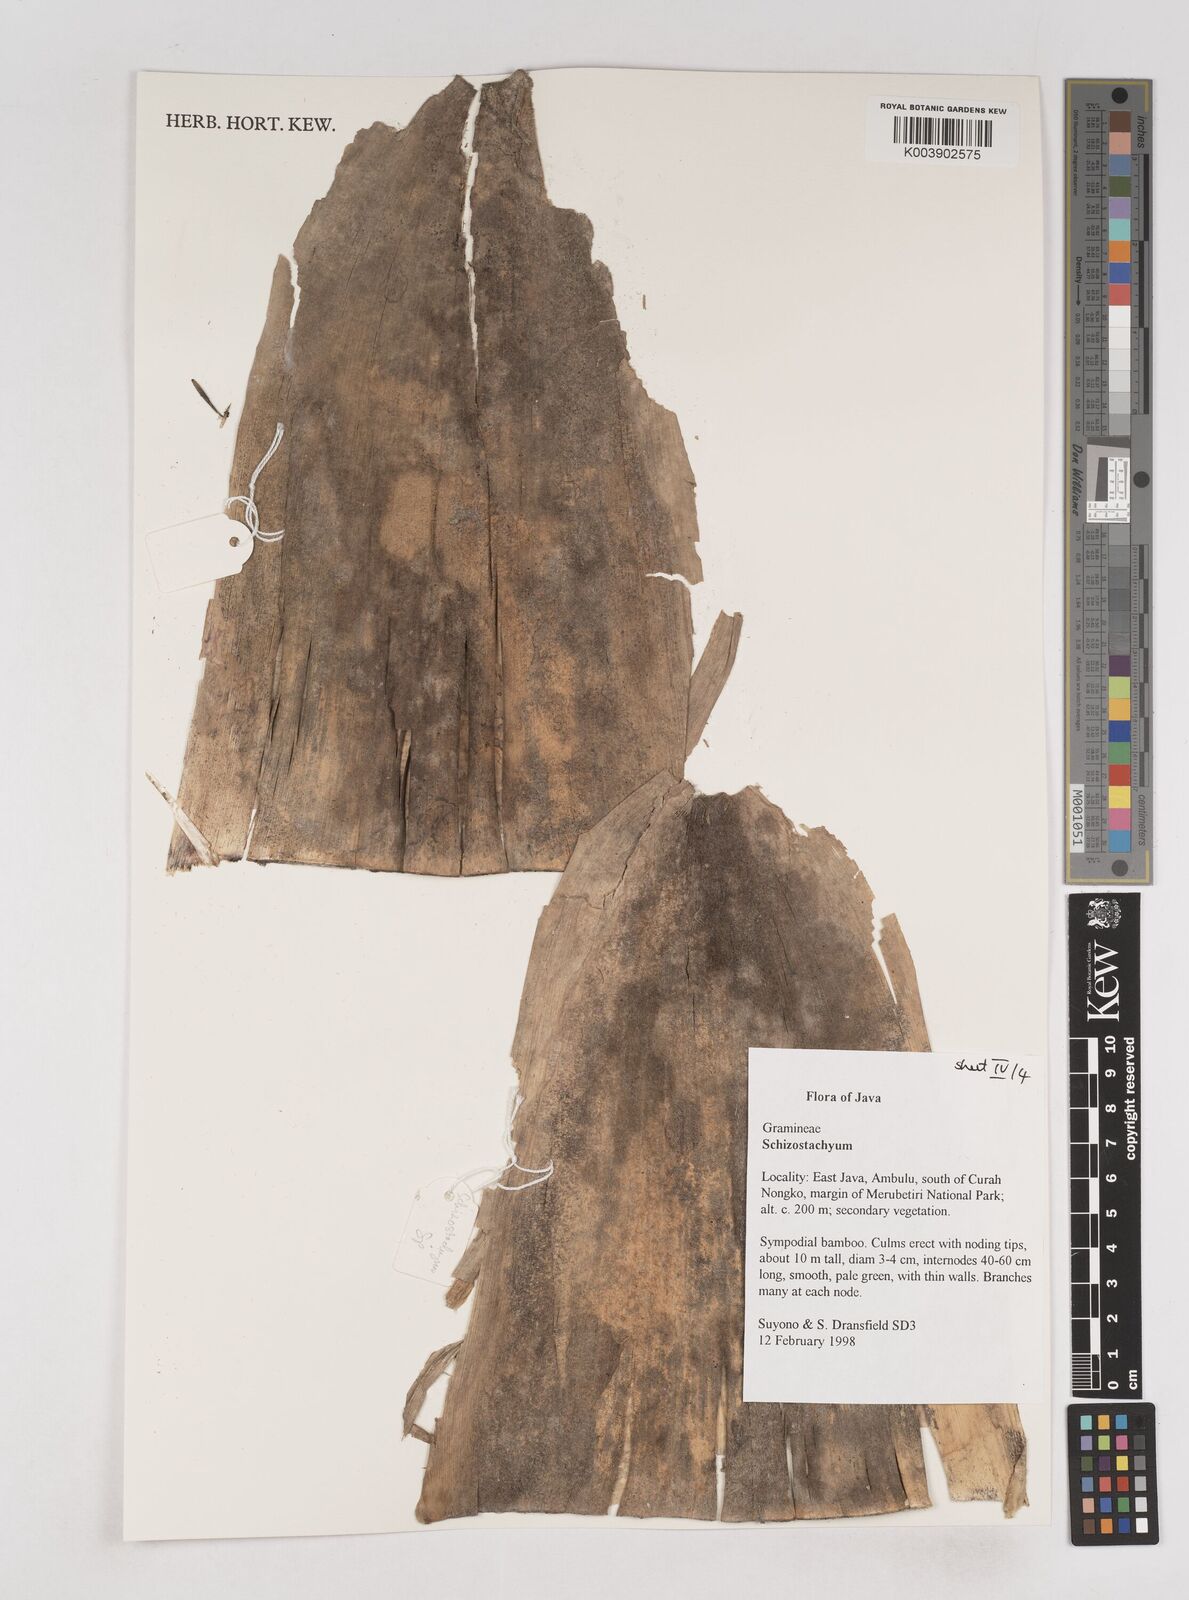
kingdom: Plantae
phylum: Tracheophyta
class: Liliopsida
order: Poales
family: Poaceae
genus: Schizostachyum
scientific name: Schizostachyum
